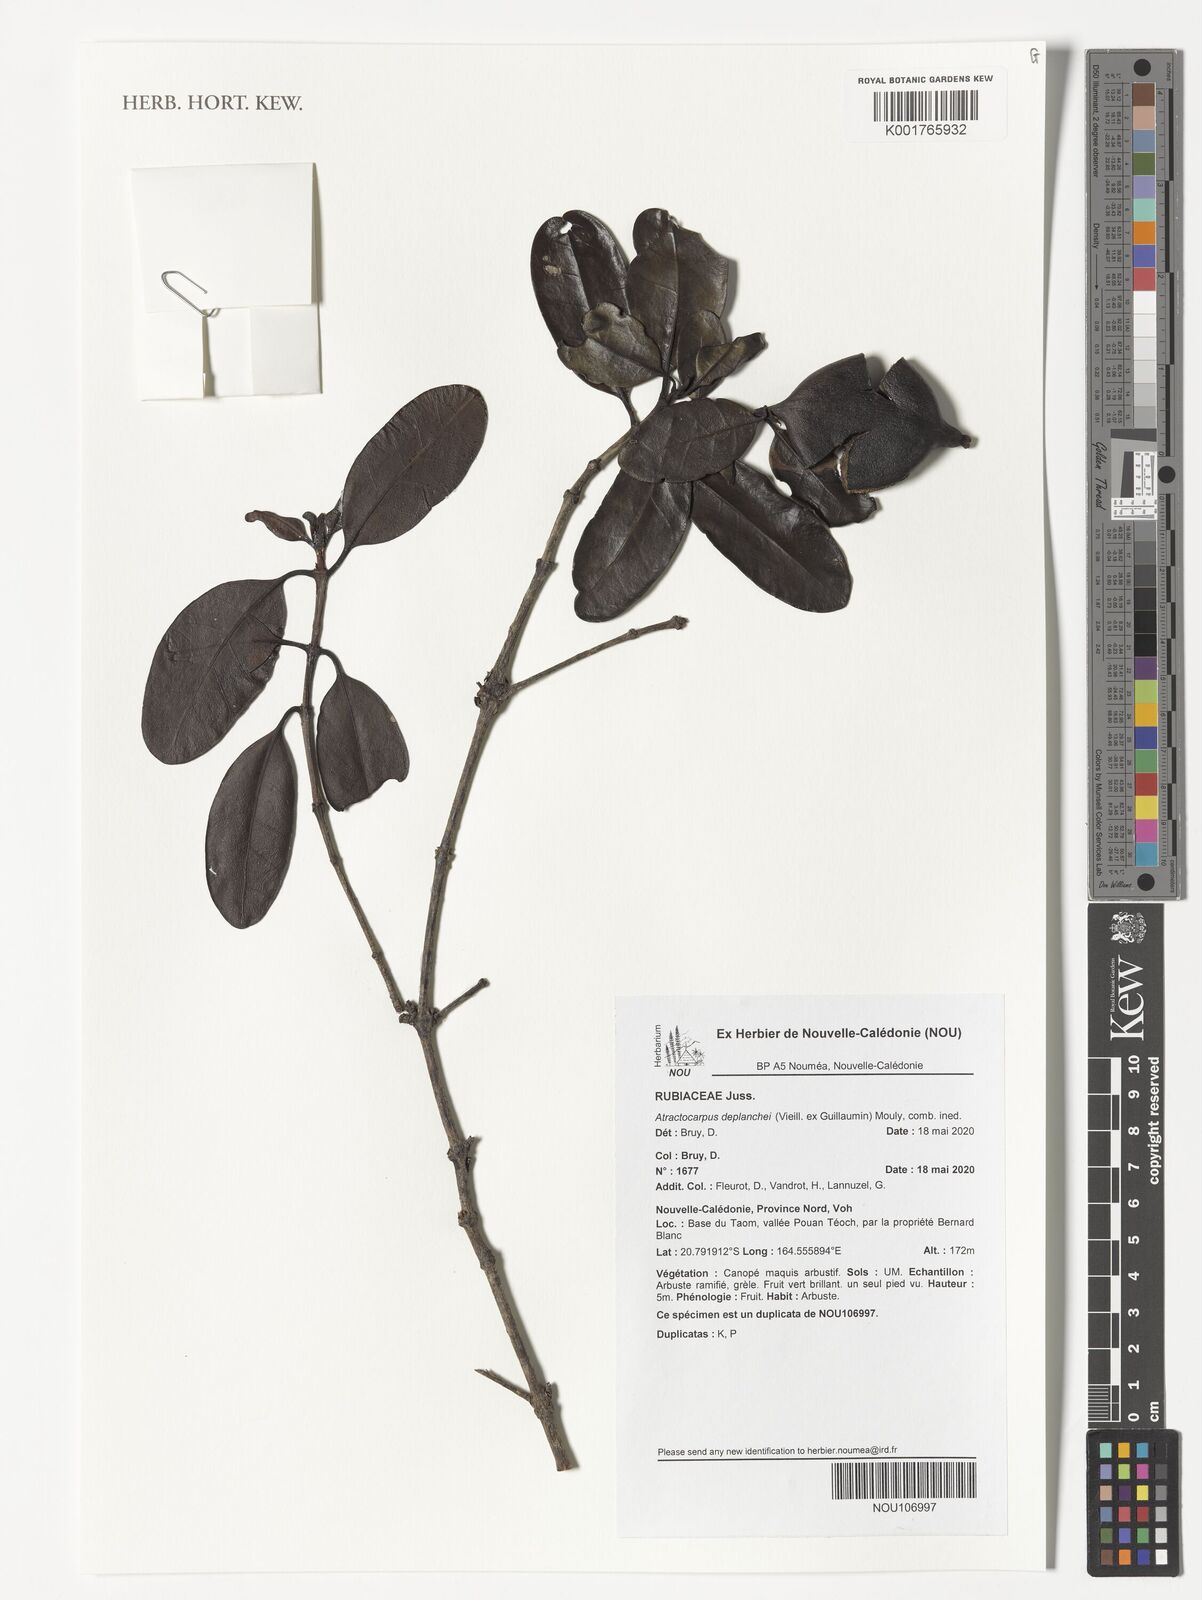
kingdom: Plantae
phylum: Tracheophyta
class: Magnoliopsida
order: Gentianales
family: Rubiaceae
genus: Atractocarpus
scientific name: Atractocarpus
